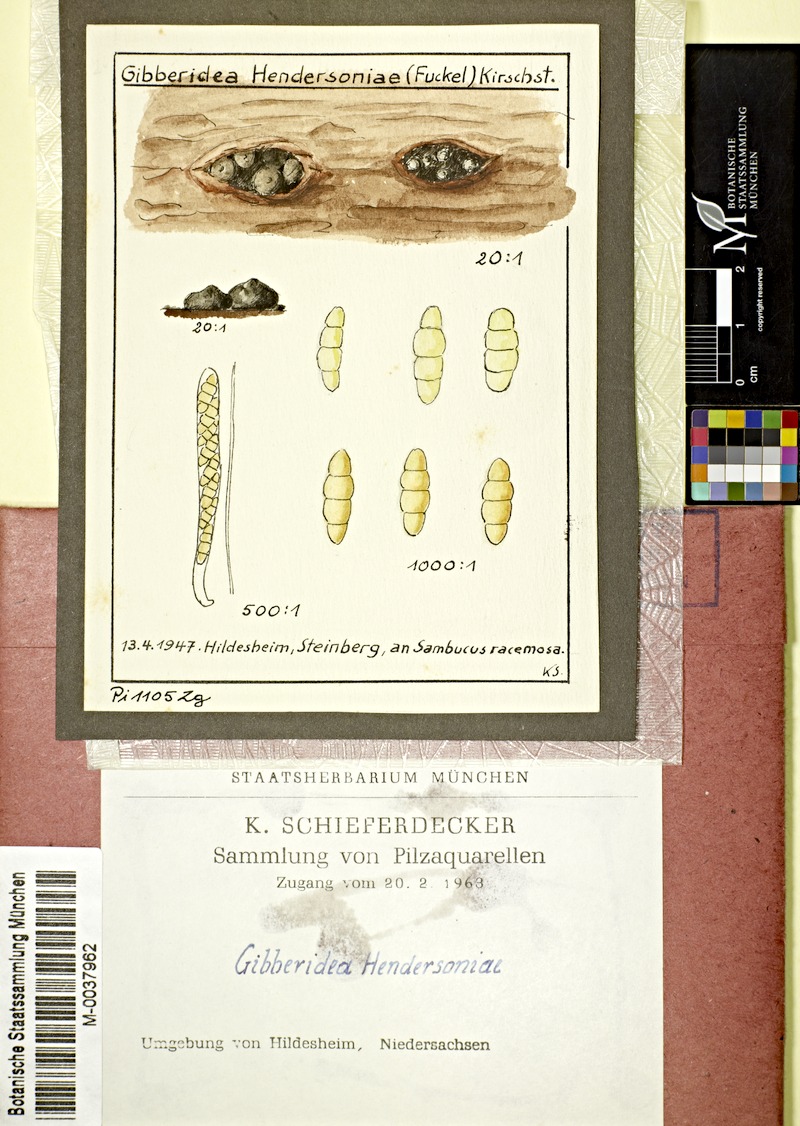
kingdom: Fungi
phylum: Ascomycota
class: Dothideomycetes
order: Botryosphaeriales
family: Botryosphaeriaceae
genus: Gibberidea
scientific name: Gibberidea
